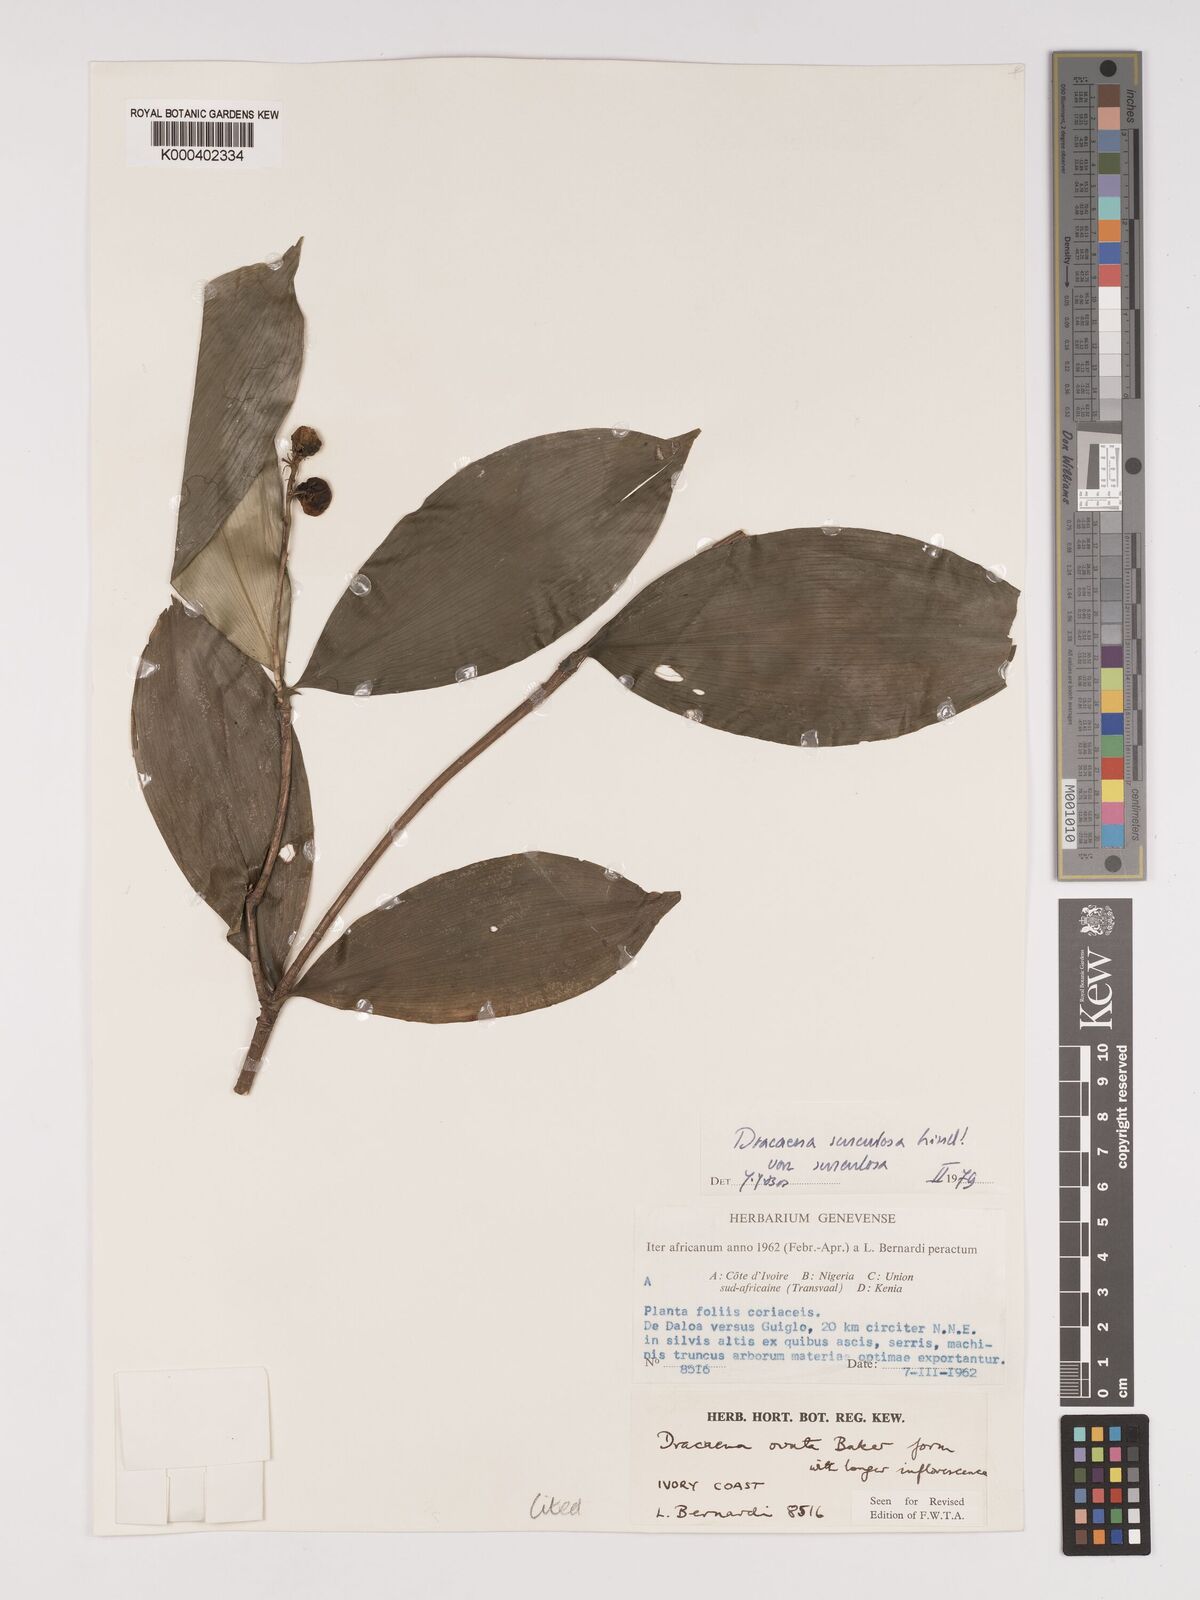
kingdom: Plantae
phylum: Tracheophyta
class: Liliopsida
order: Asparagales
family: Asparagaceae
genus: Dracaena
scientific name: Dracaena surculosa
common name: Spotted dracaena
